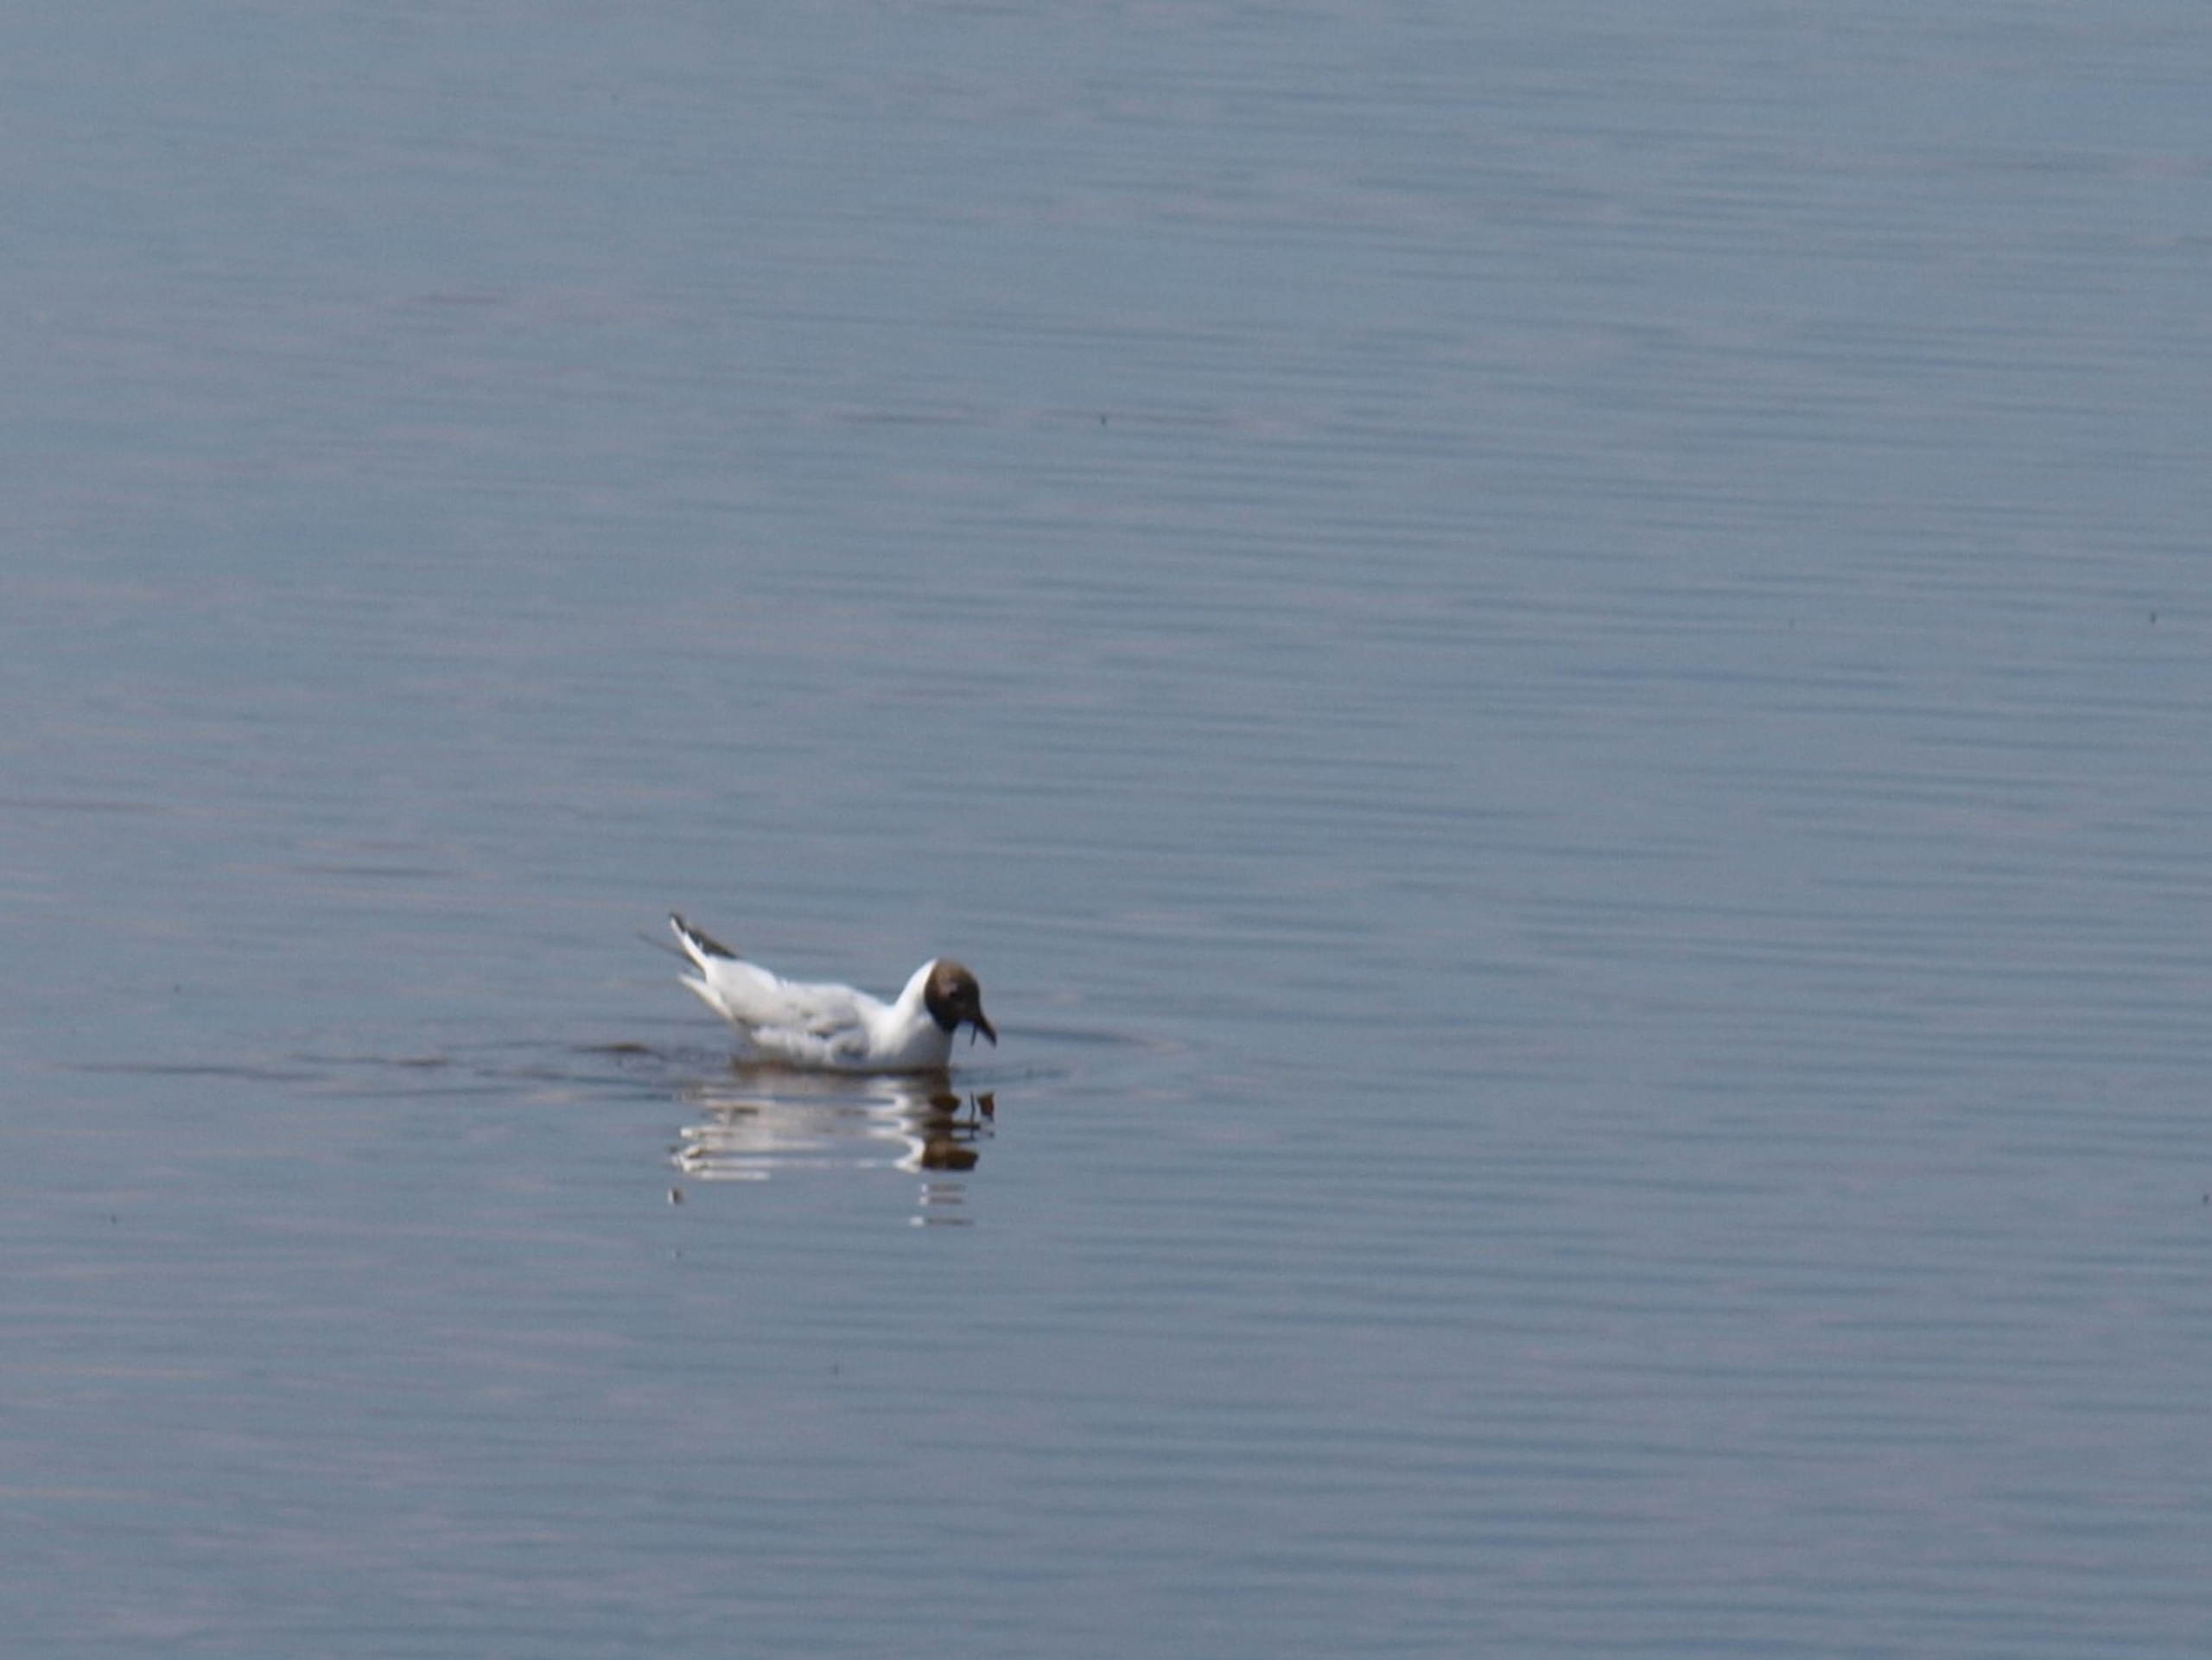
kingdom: Animalia
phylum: Chordata
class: Aves
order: Charadriiformes
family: Laridae
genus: Chroicocephalus
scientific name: Chroicocephalus ridibundus
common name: Hættemåge
